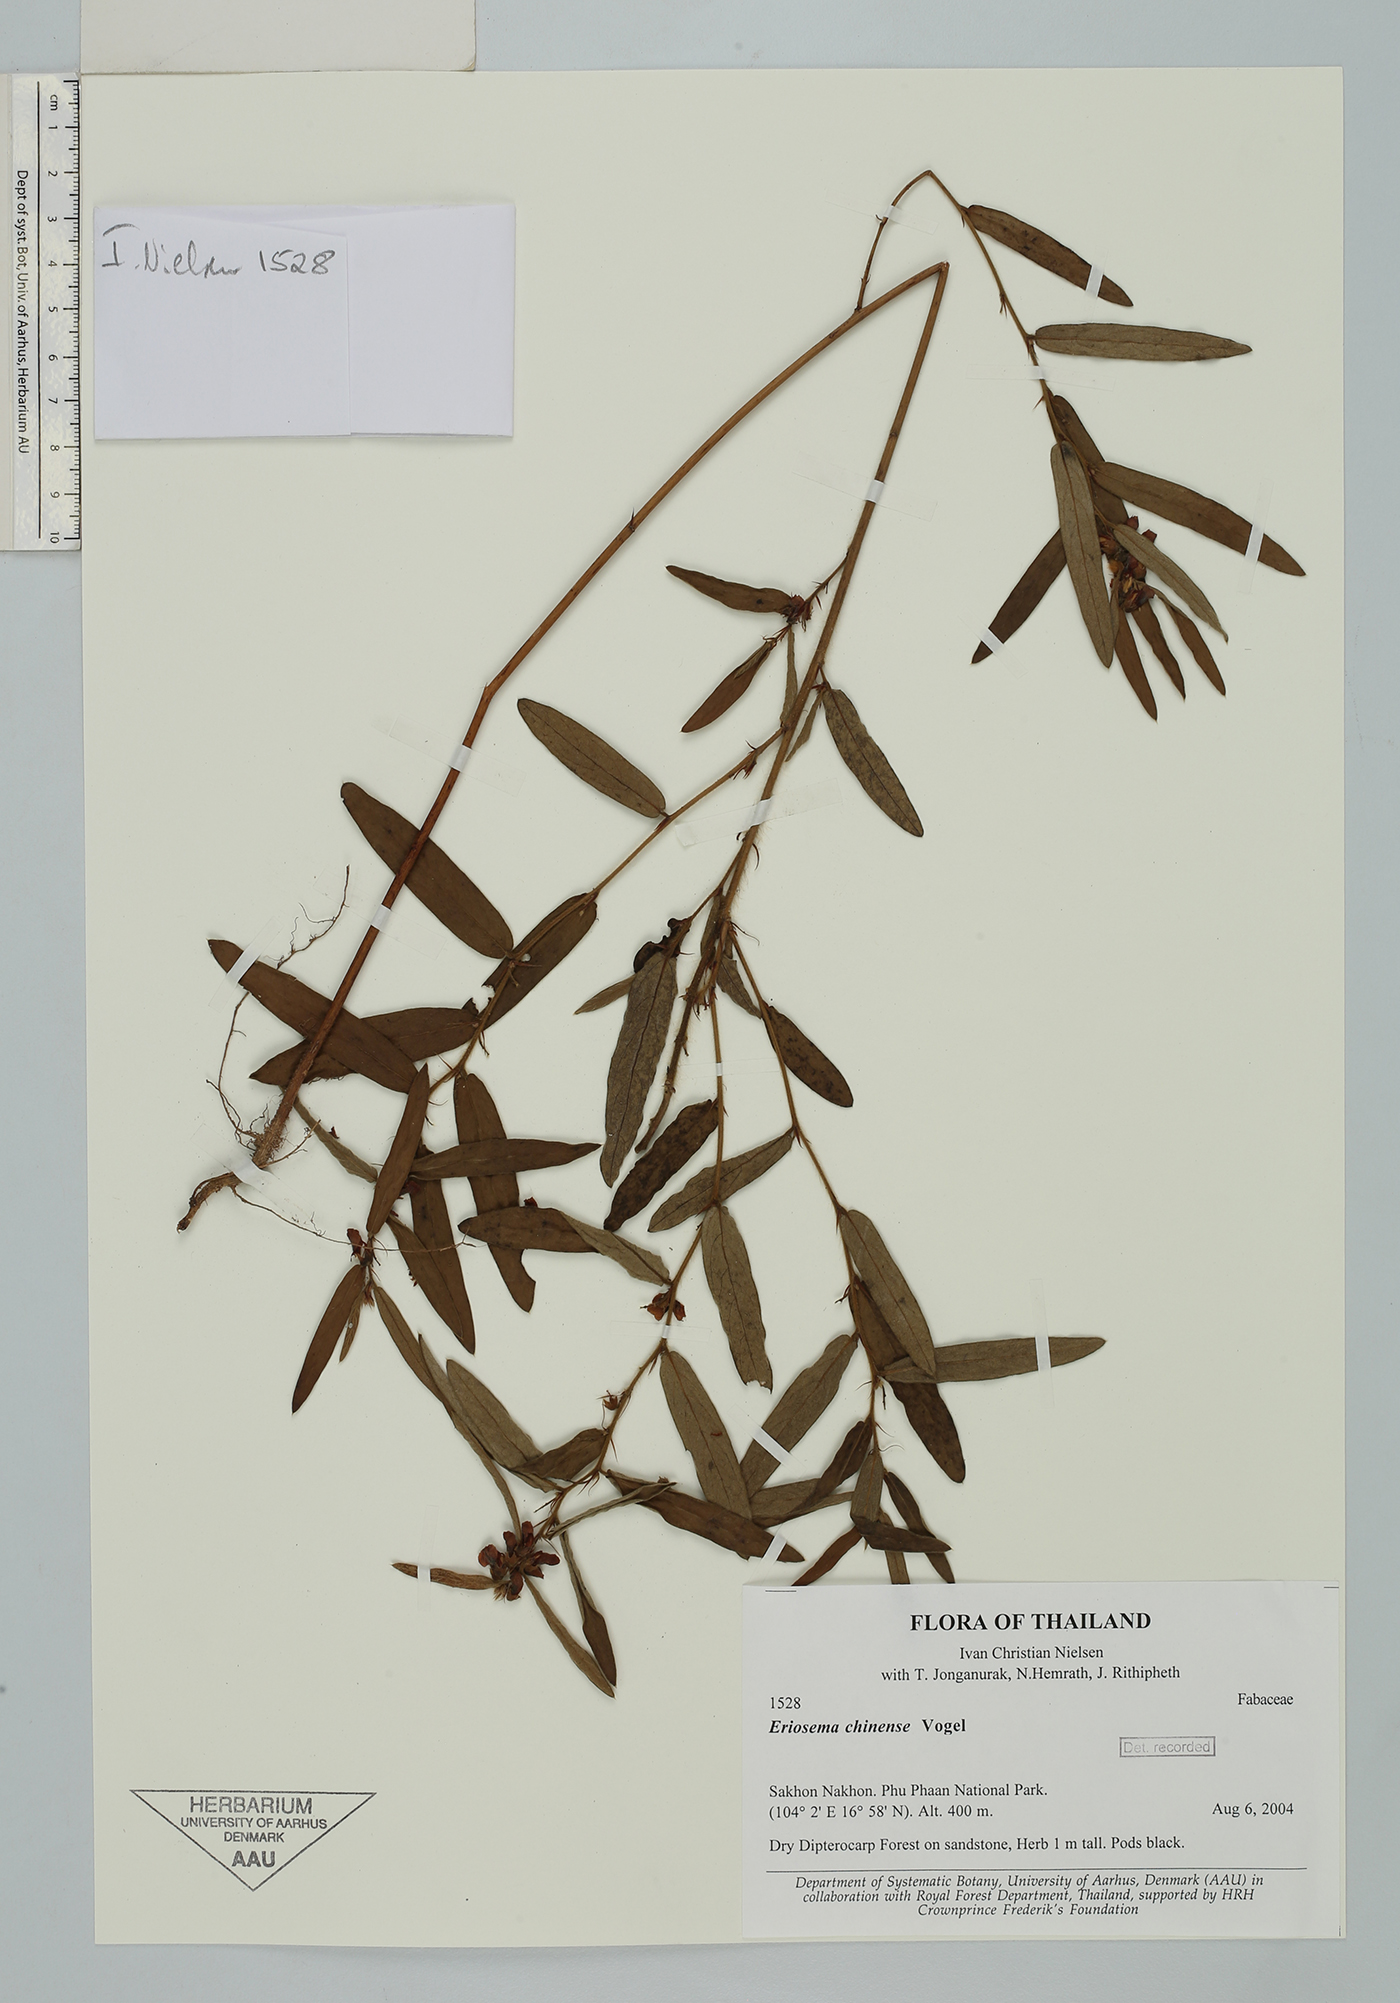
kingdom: Plantae
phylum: Tracheophyta
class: Magnoliopsida
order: Fabales
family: Fabaceae
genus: Eriosema
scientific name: Eriosema chinense
